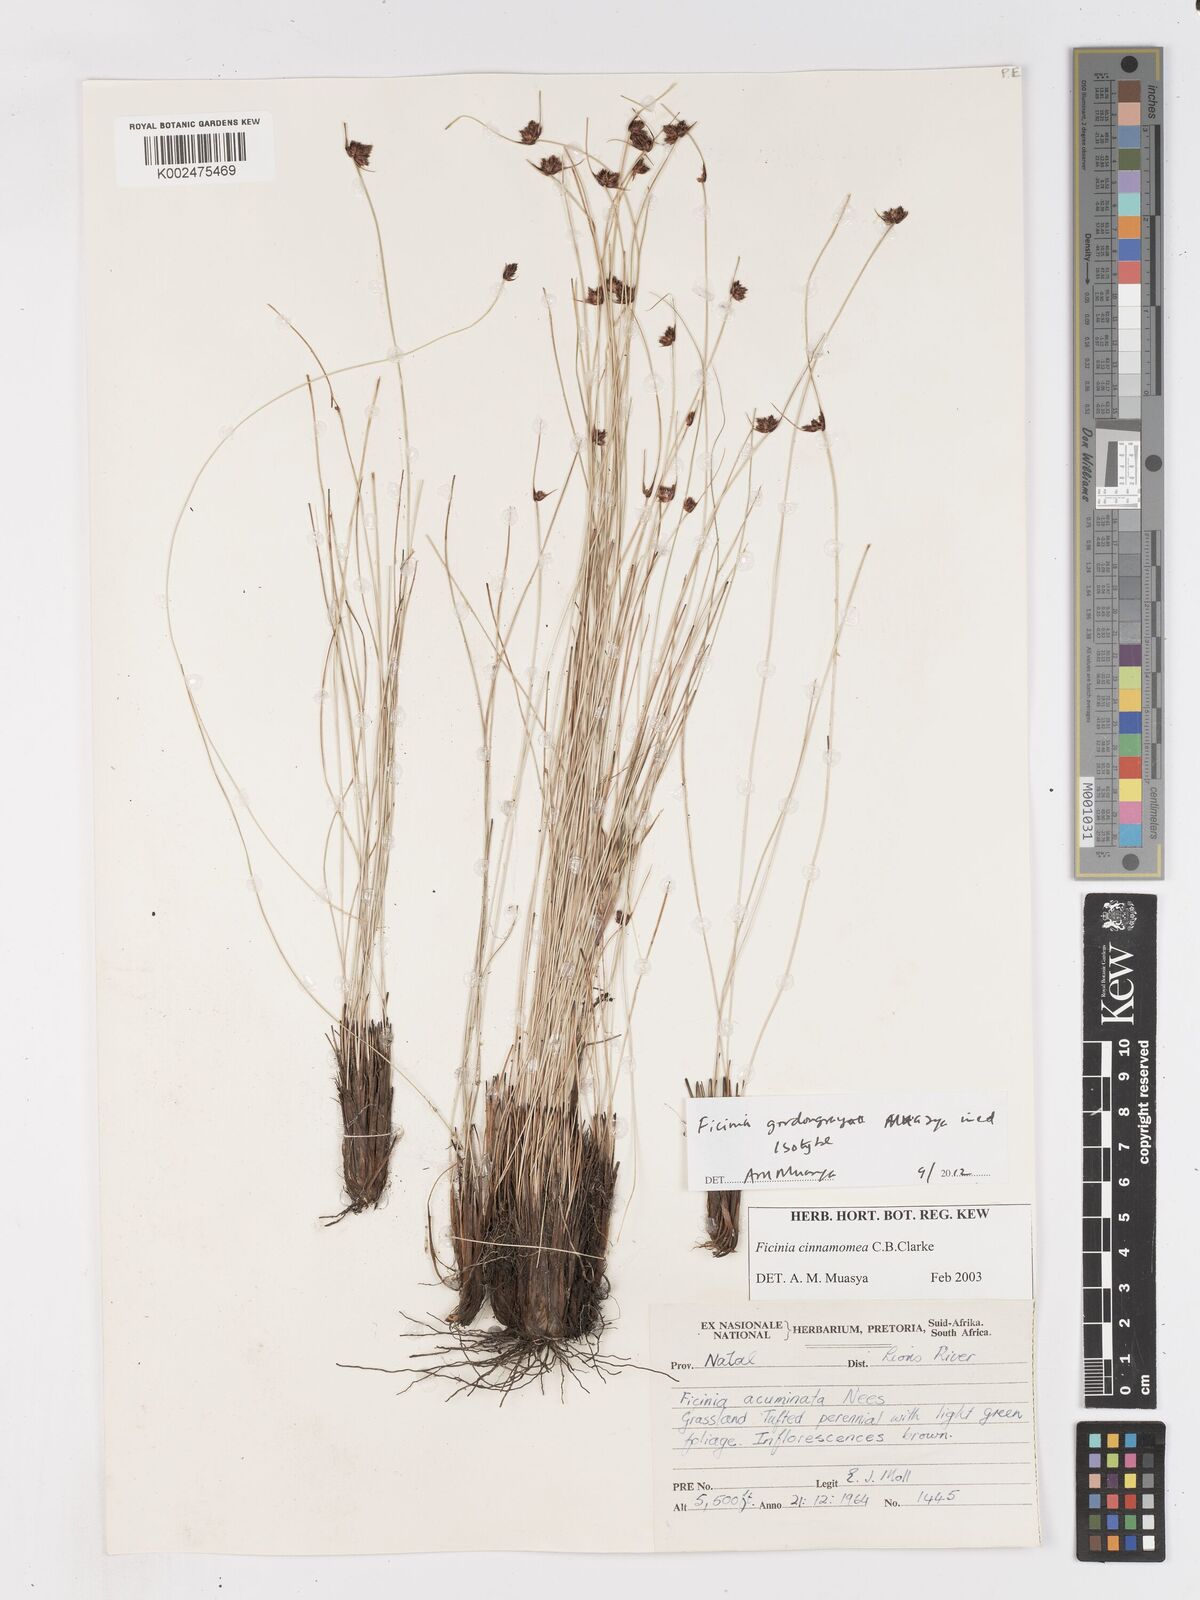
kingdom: Plantae
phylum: Tracheophyta
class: Liliopsida
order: Poales
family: Cyperaceae
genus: Ficinia
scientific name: Ficinia cinnamomea
